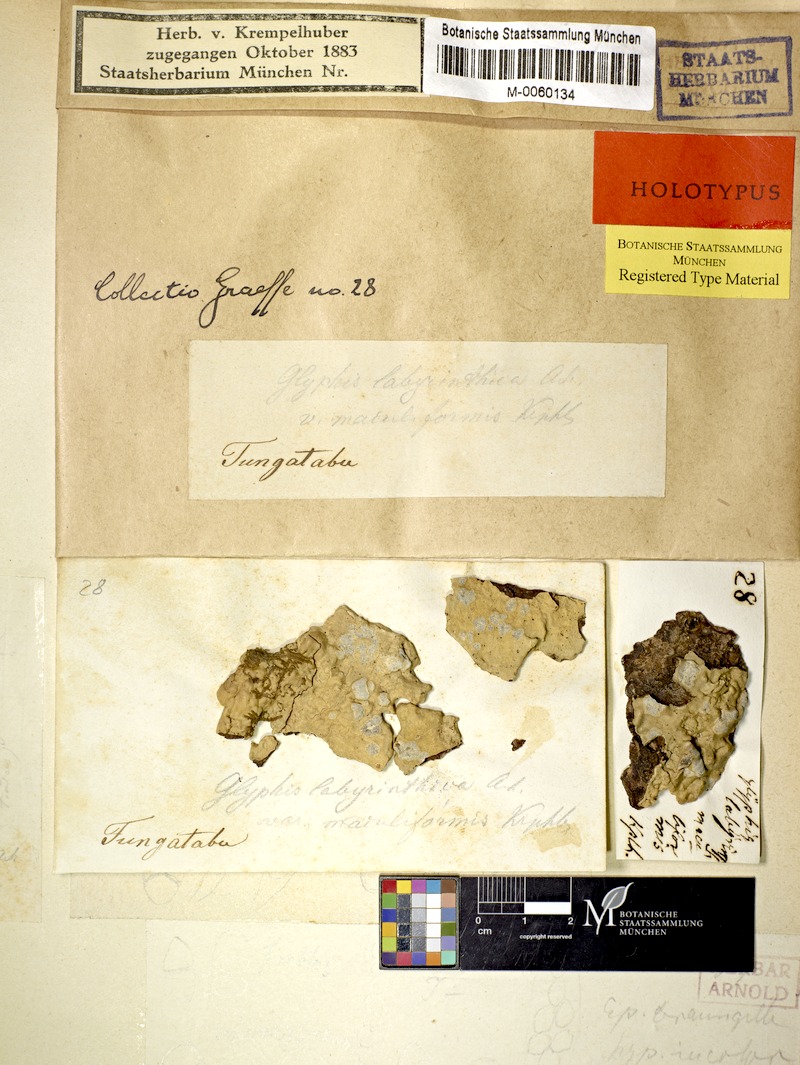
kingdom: Fungi
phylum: Ascomycota
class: Lecanoromycetes
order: Ostropales
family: Graphidaceae
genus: Sarcographa
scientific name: Sarcographa labyrinthica
